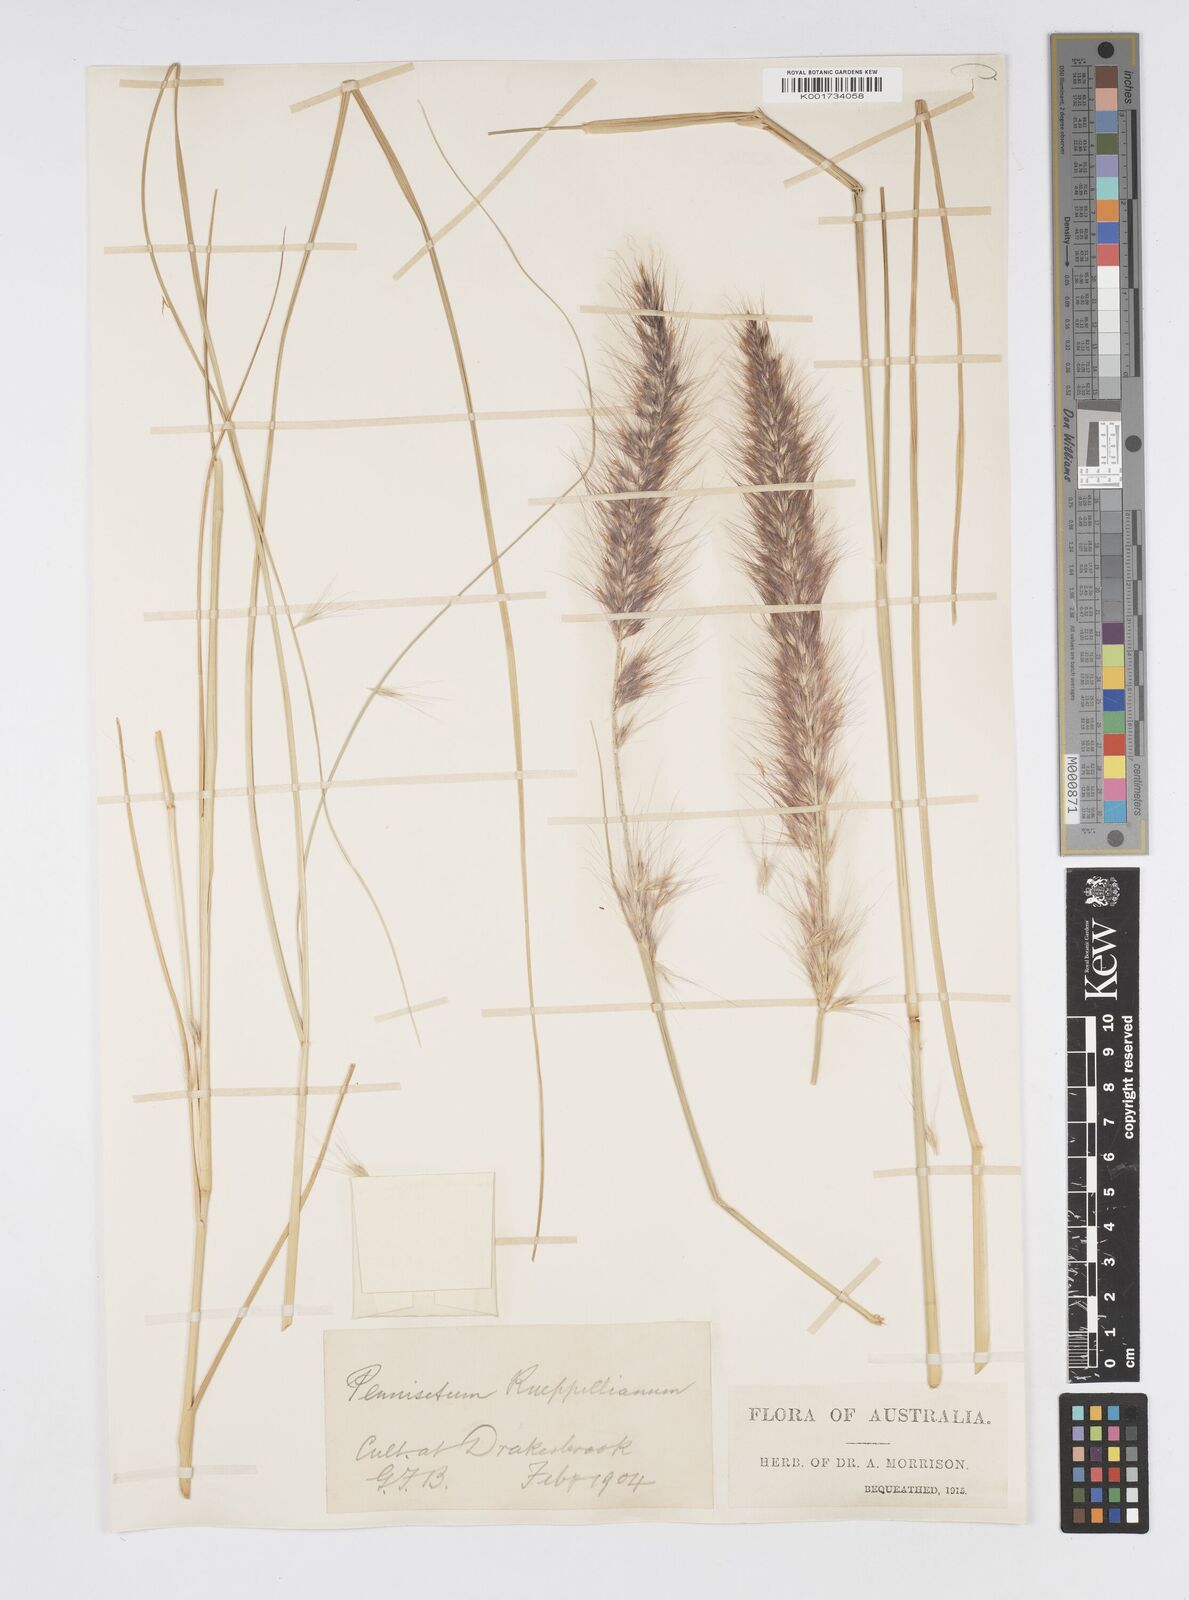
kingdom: Plantae
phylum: Tracheophyta
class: Liliopsida
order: Poales
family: Poaceae
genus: Cenchrus
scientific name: Cenchrus setaceus
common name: Crimson fountaingrass
